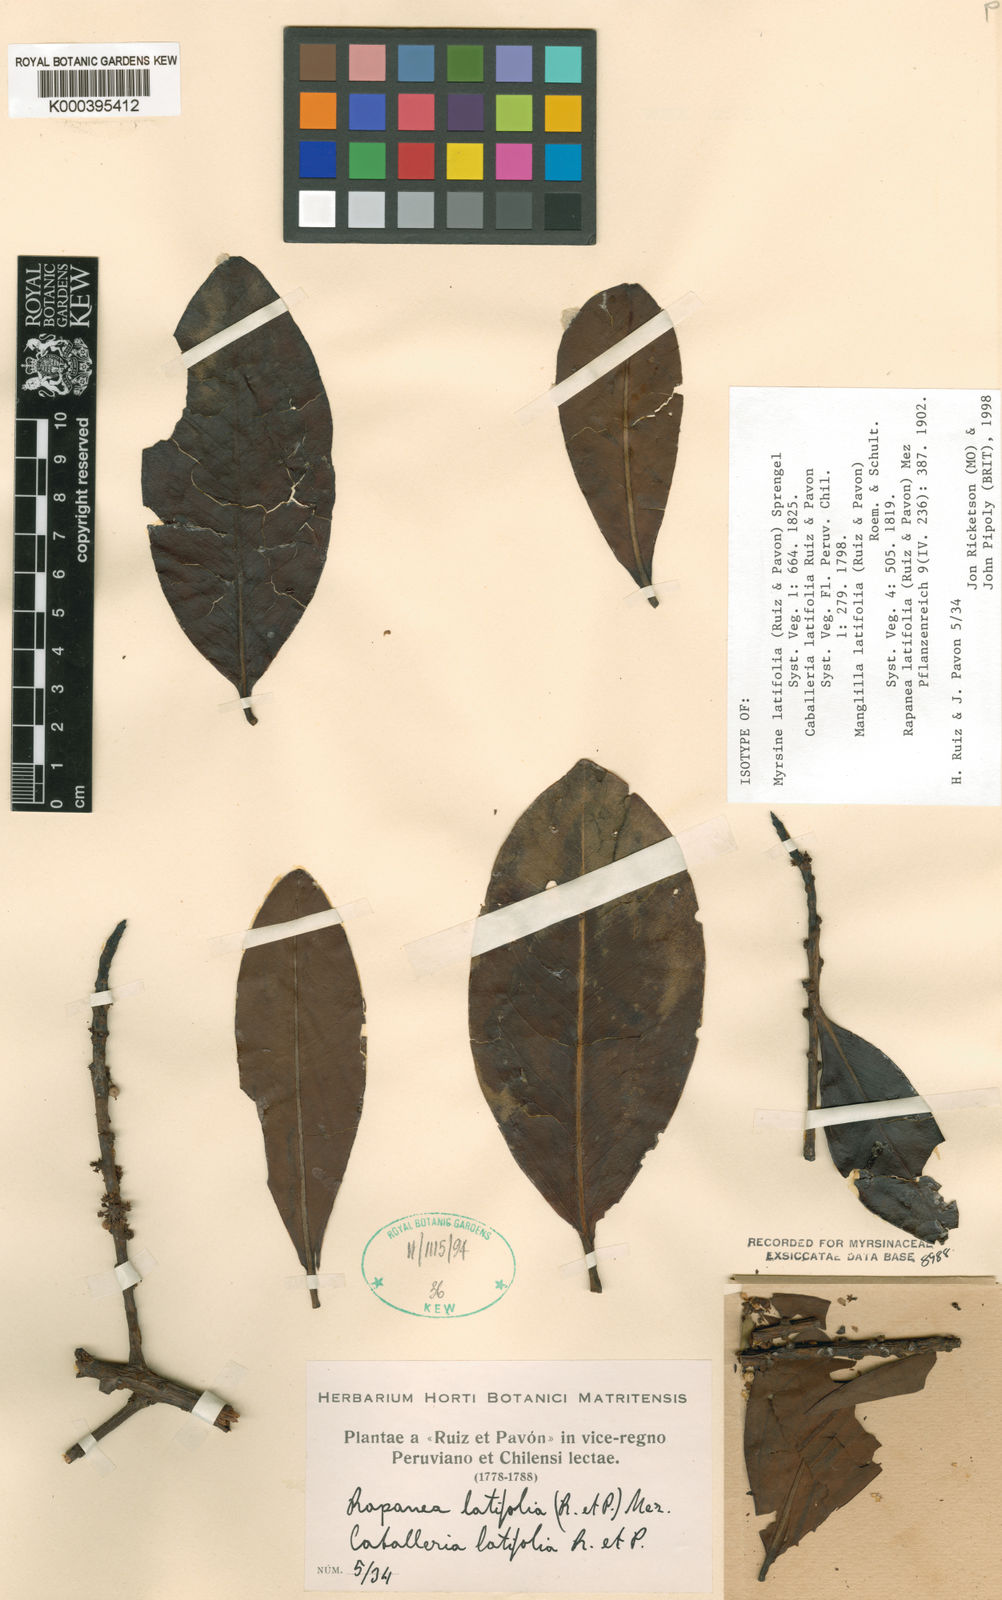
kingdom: Plantae
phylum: Tracheophyta
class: Magnoliopsida
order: Ericales
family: Primulaceae
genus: Myrsine
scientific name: Myrsine latifolia
